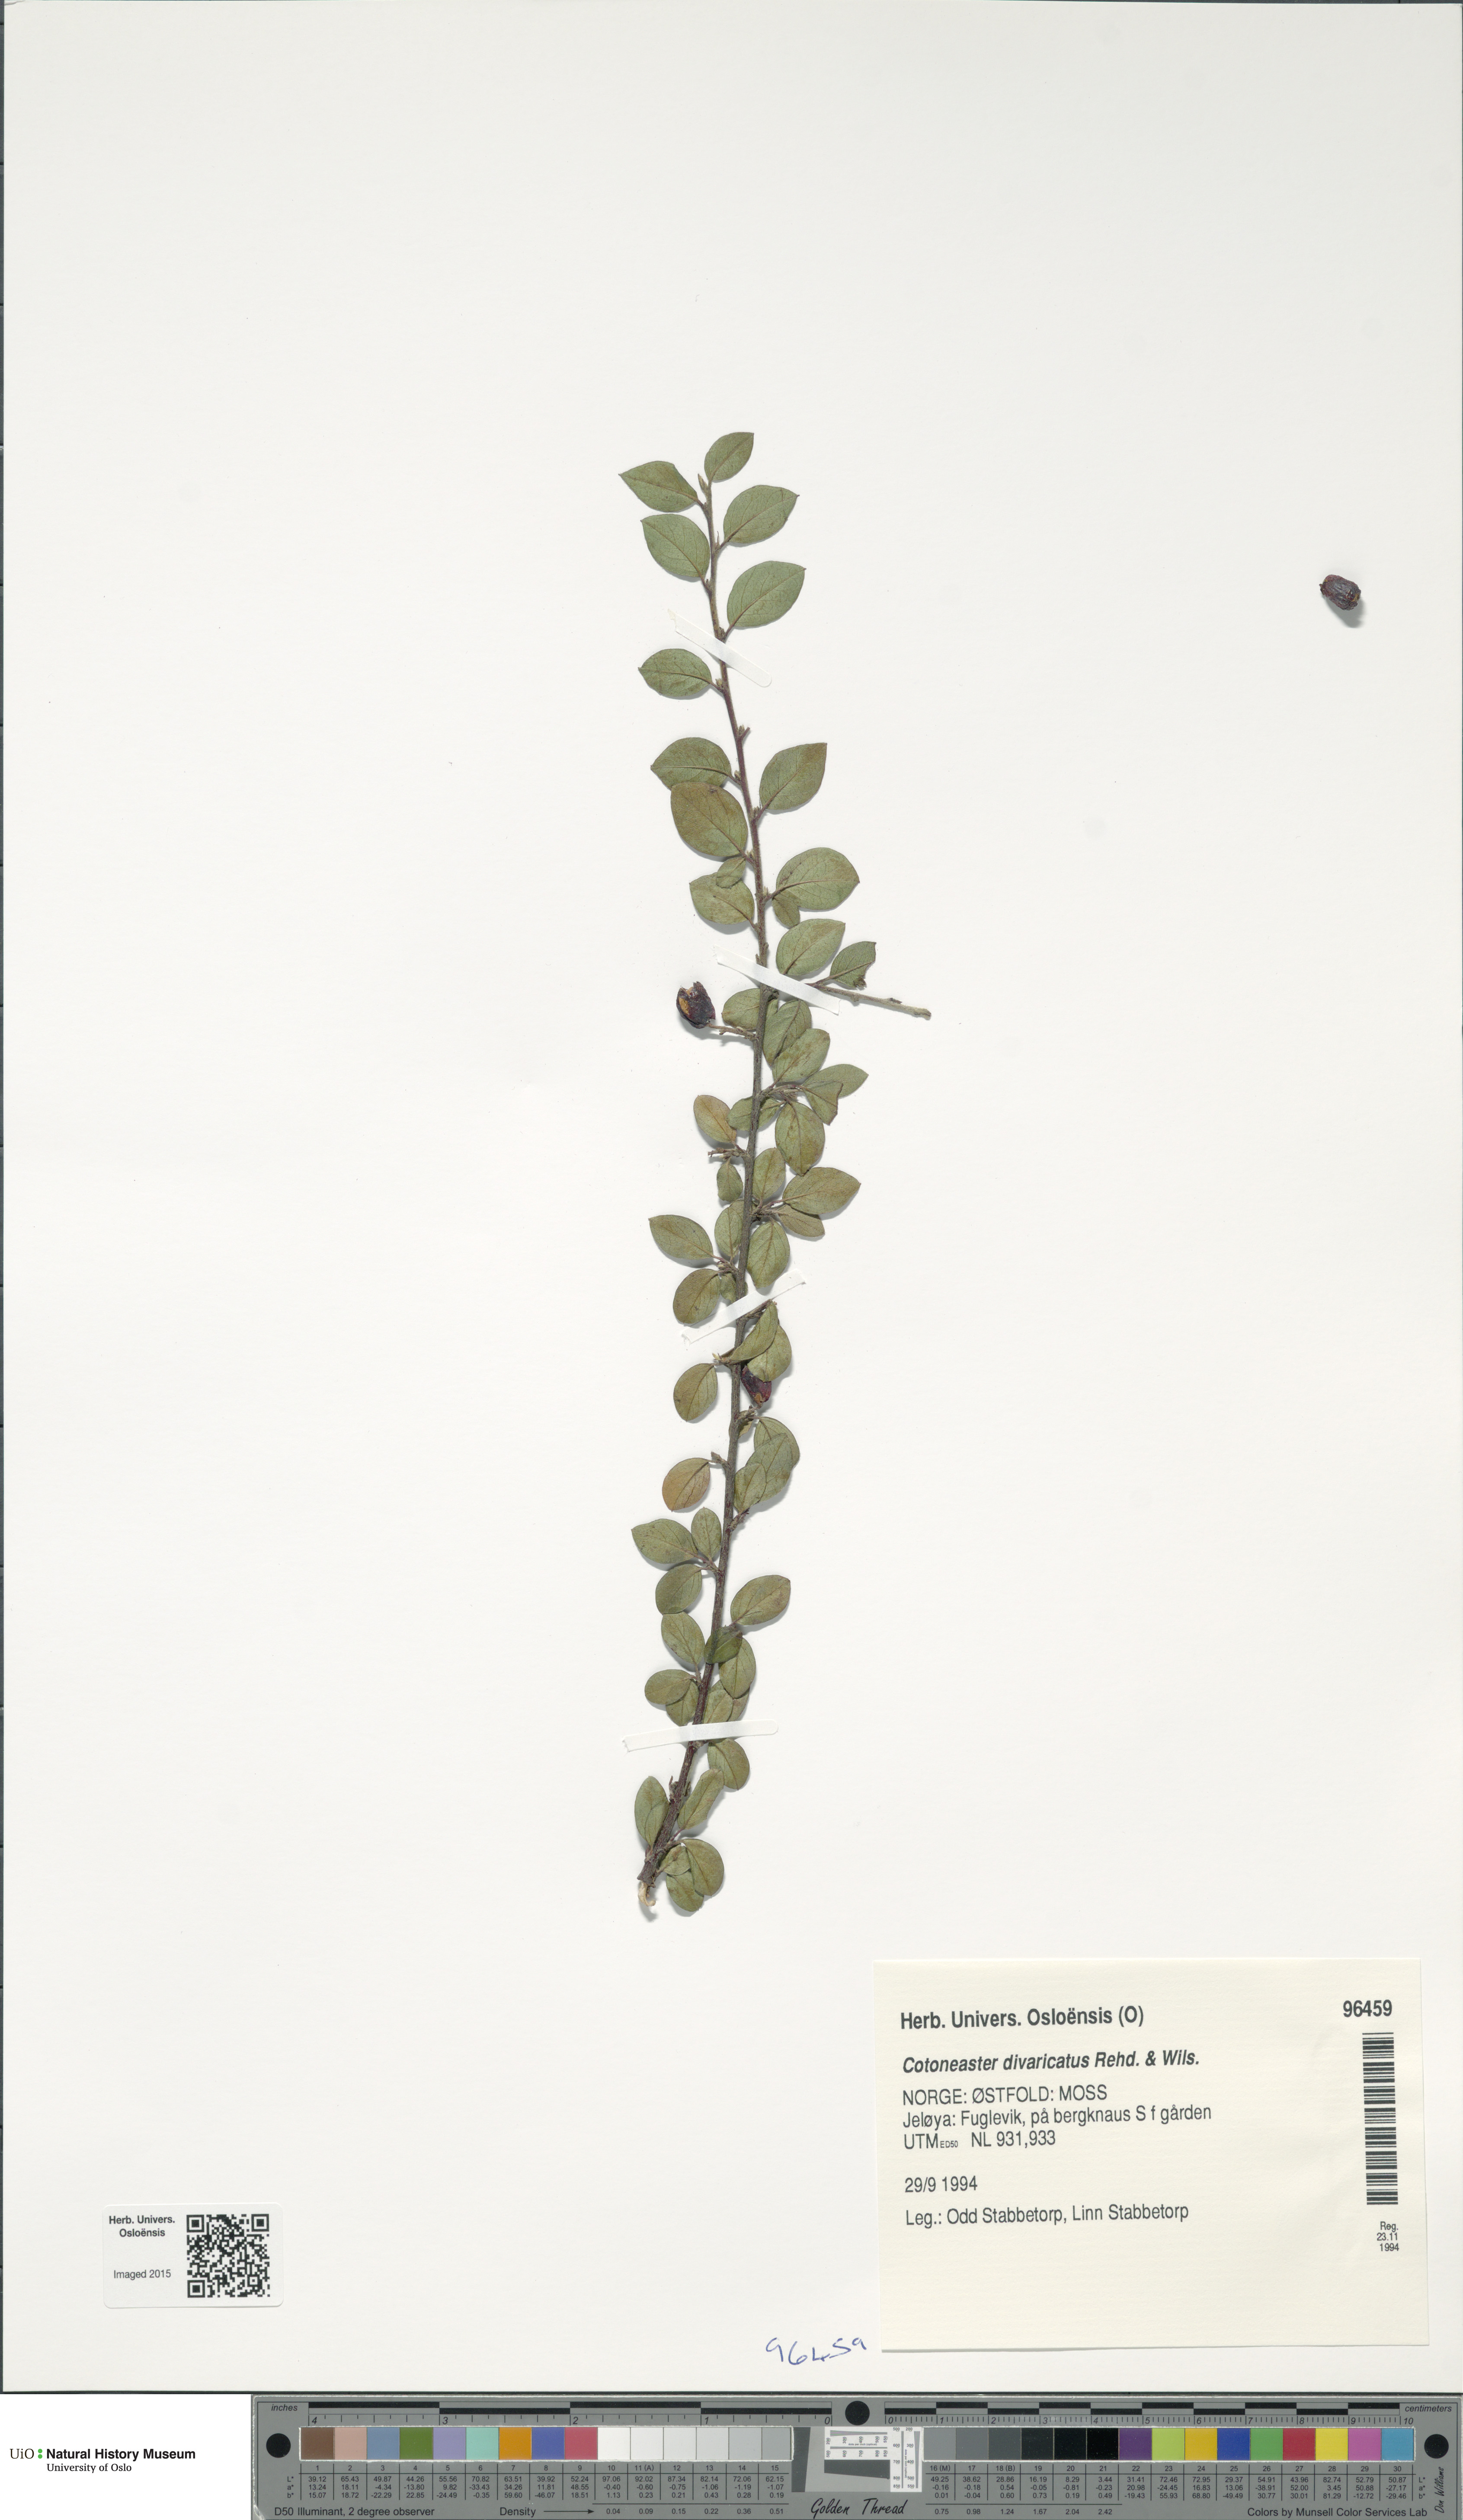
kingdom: Plantae
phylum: Tracheophyta
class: Magnoliopsida
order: Rosales
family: Rosaceae
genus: Cotoneaster
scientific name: Cotoneaster divaricatus
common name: Spreading cotoneaster
